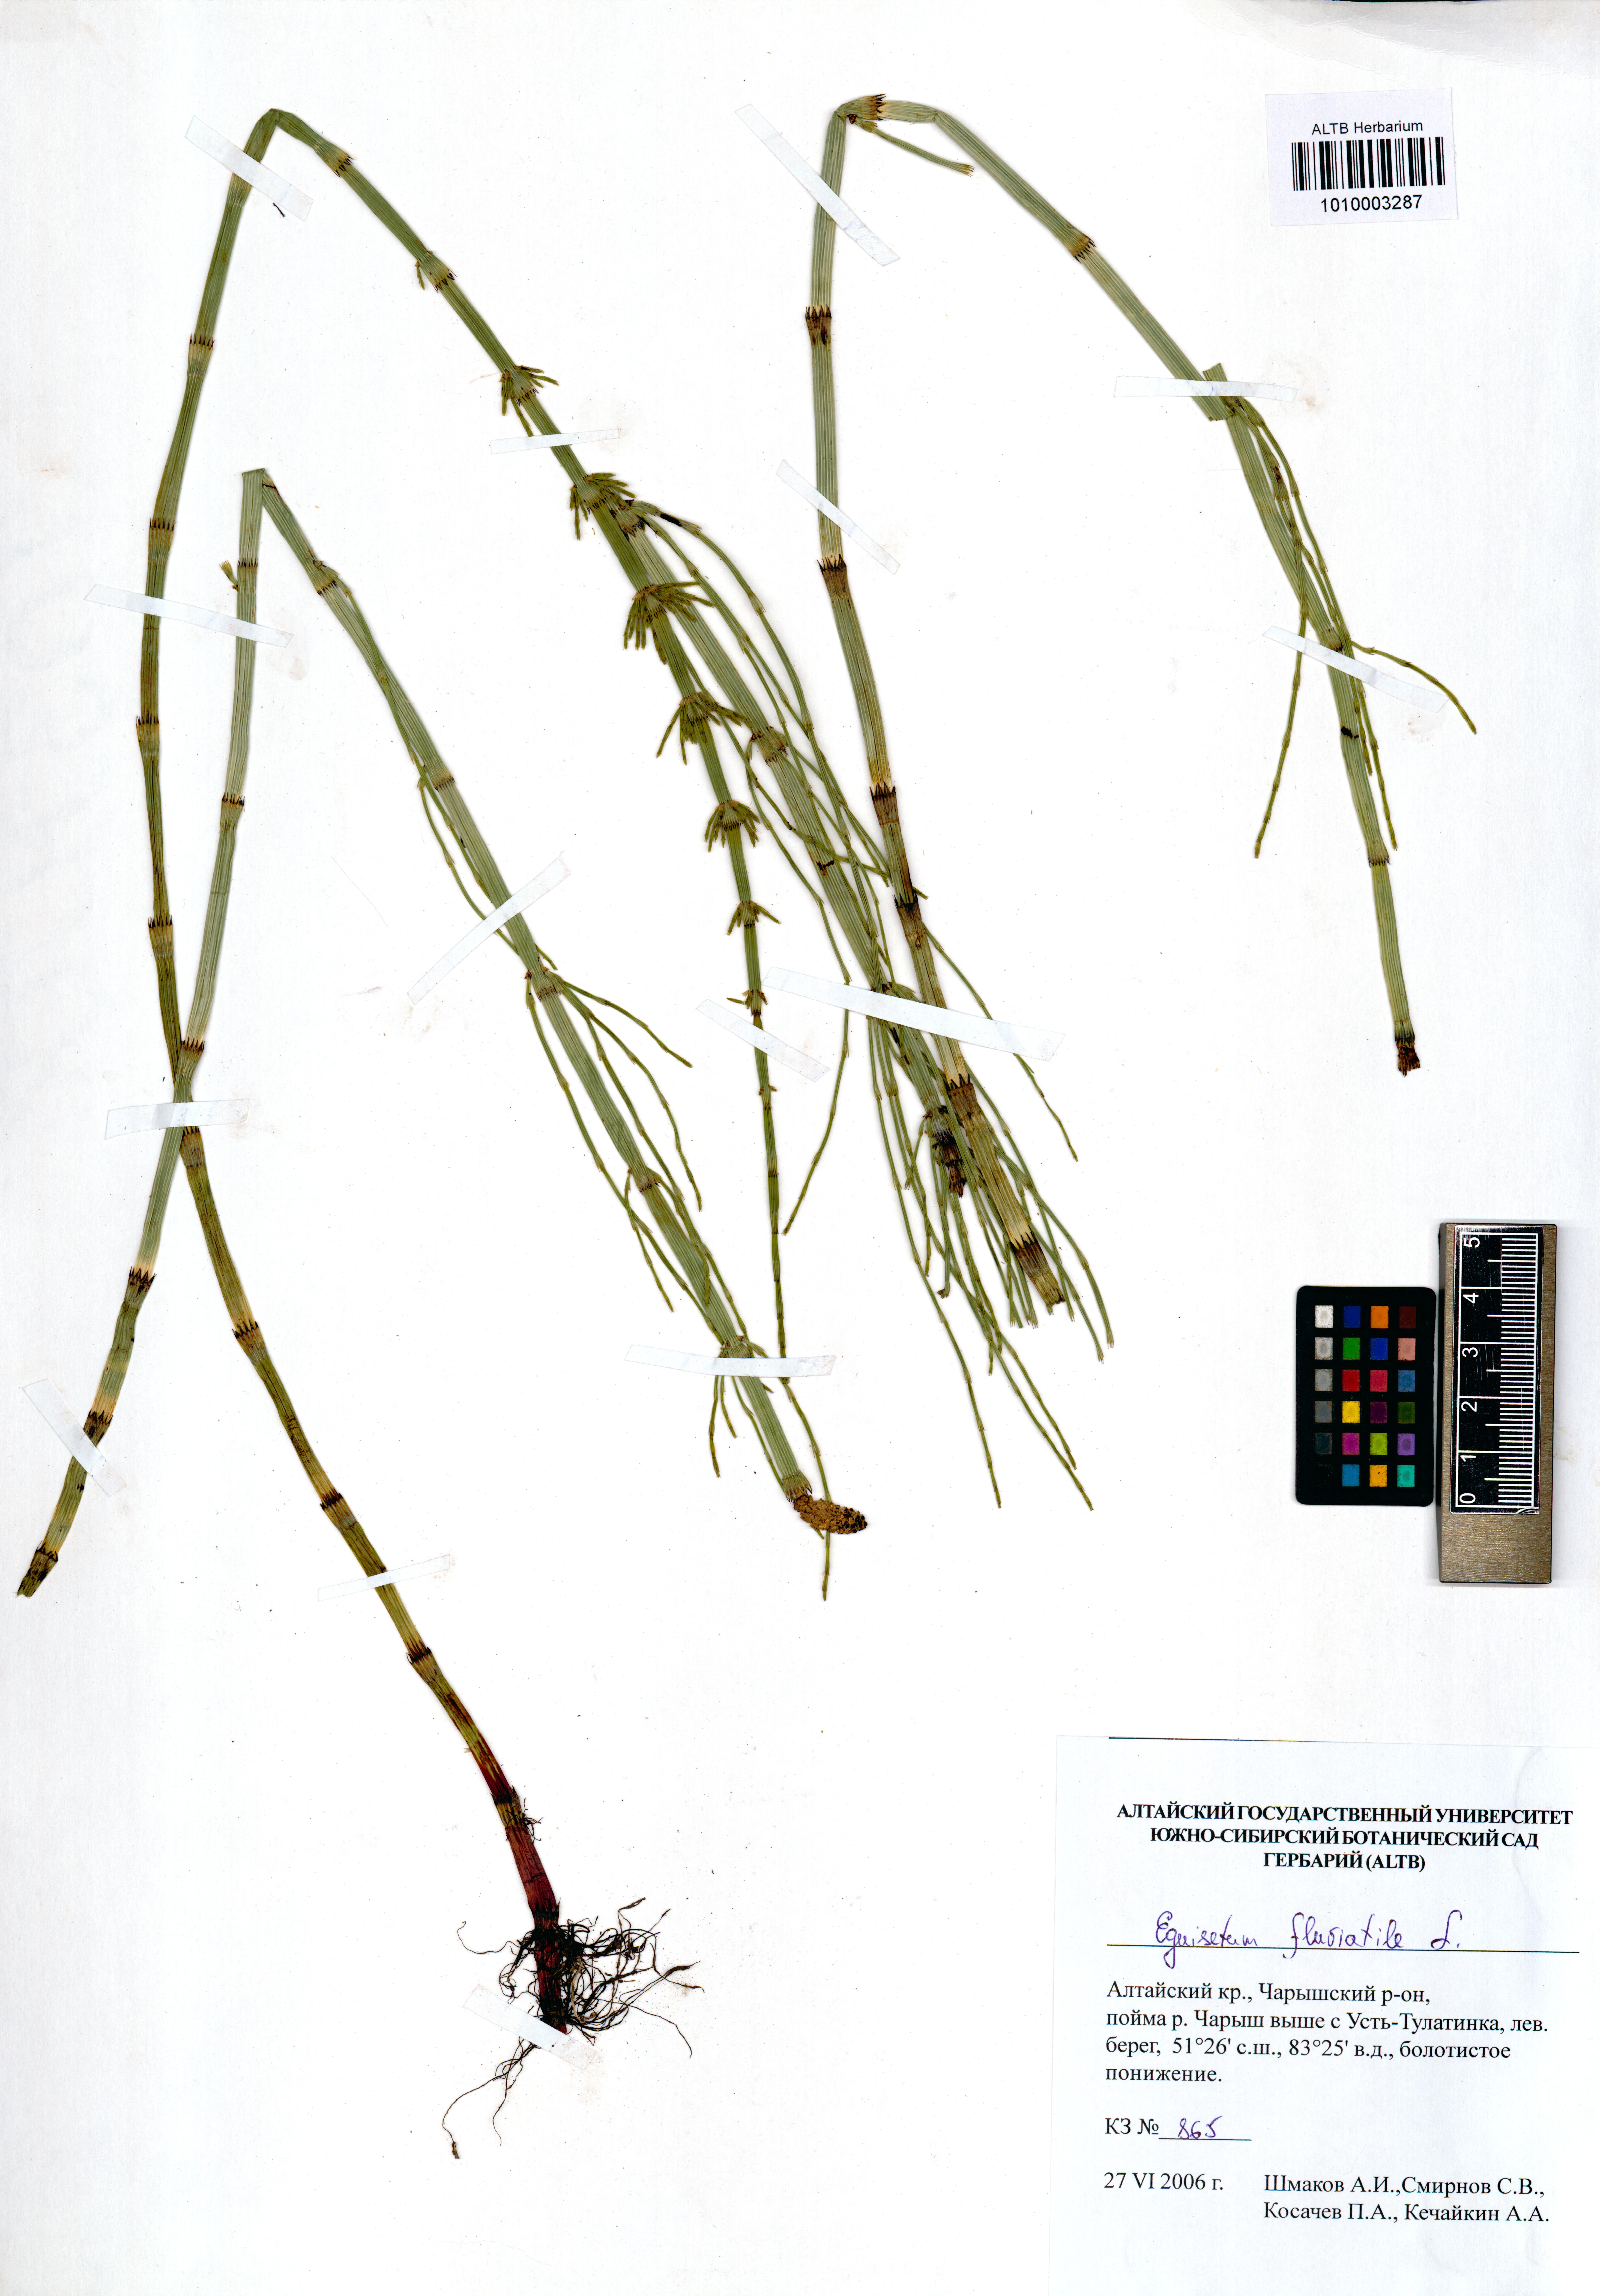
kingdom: Plantae
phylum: Tracheophyta
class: Polypodiopsida
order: Equisetales
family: Equisetaceae
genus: Equisetum
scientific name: Equisetum fluviatile
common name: Water horsetail
